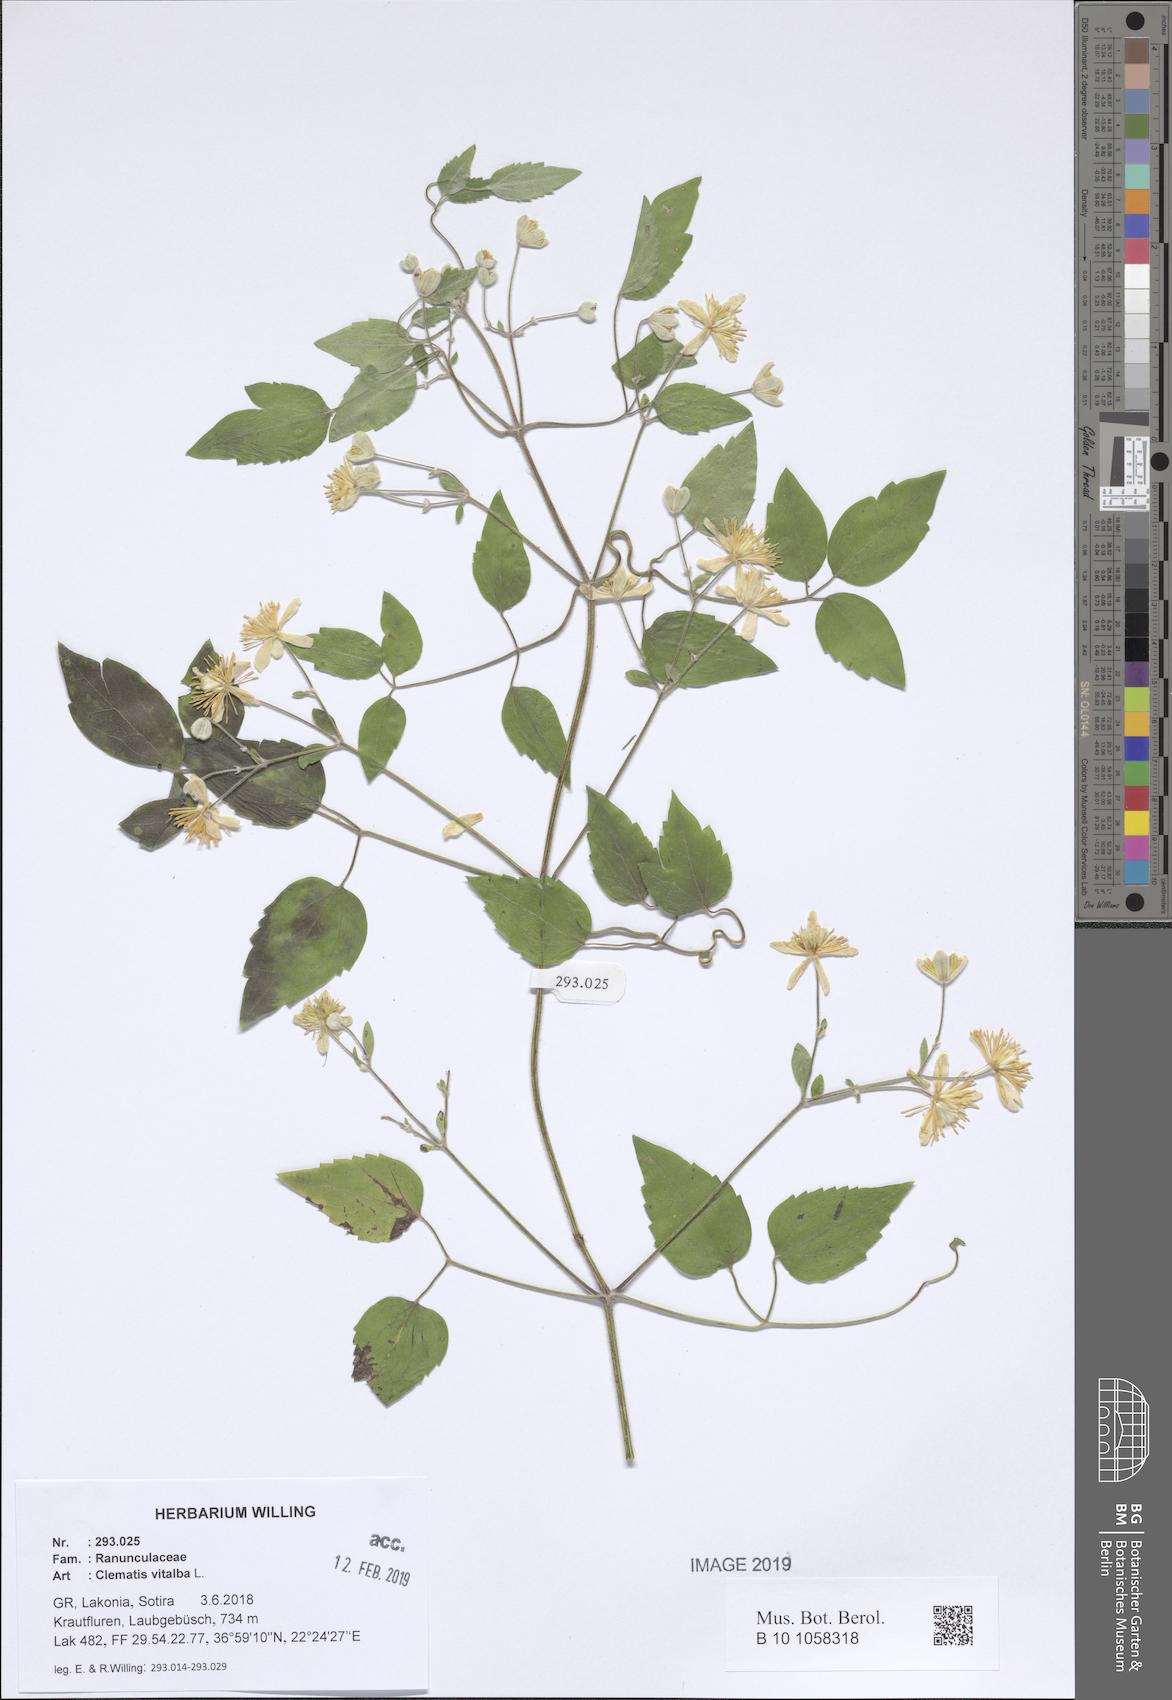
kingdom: Plantae
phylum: Tracheophyta
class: Magnoliopsida
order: Ranunculales
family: Ranunculaceae
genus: Clematis
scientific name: Clematis vitalba
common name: Evergreen clematis
